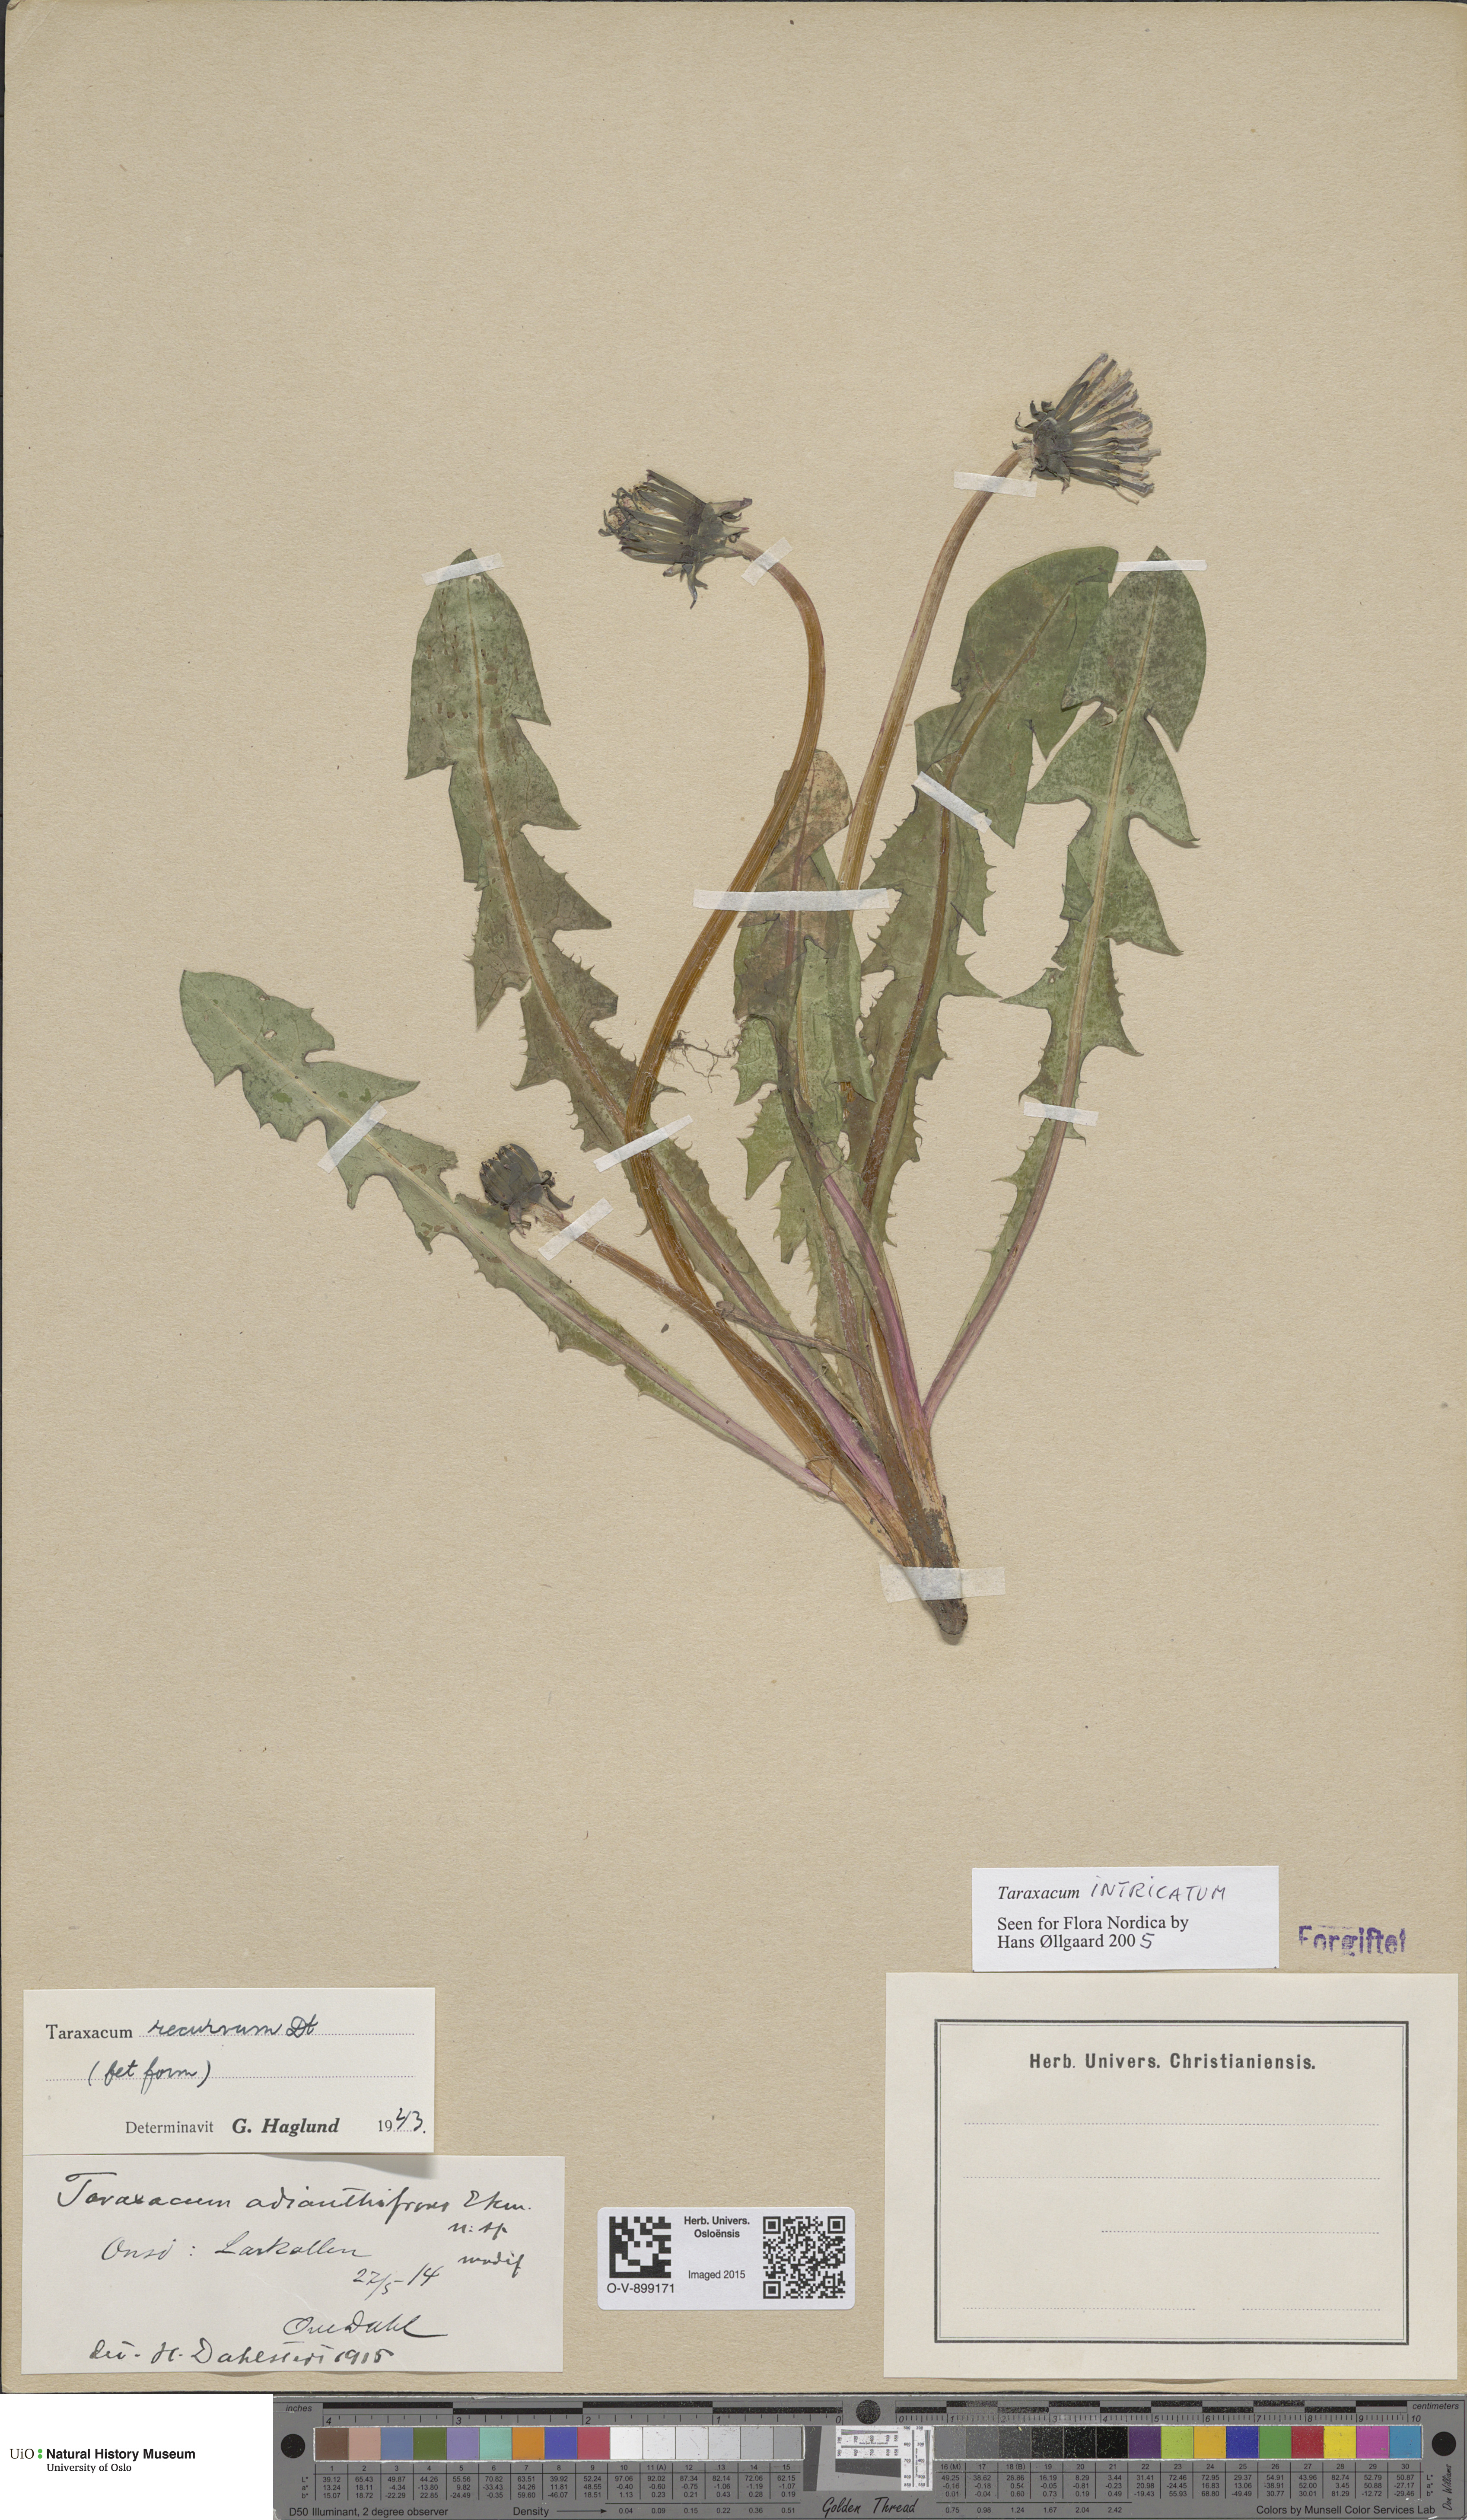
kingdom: Plantae
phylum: Tracheophyta
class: Magnoliopsida
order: Asterales
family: Asteraceae
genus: Taraxacum
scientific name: Taraxacum recurvum
